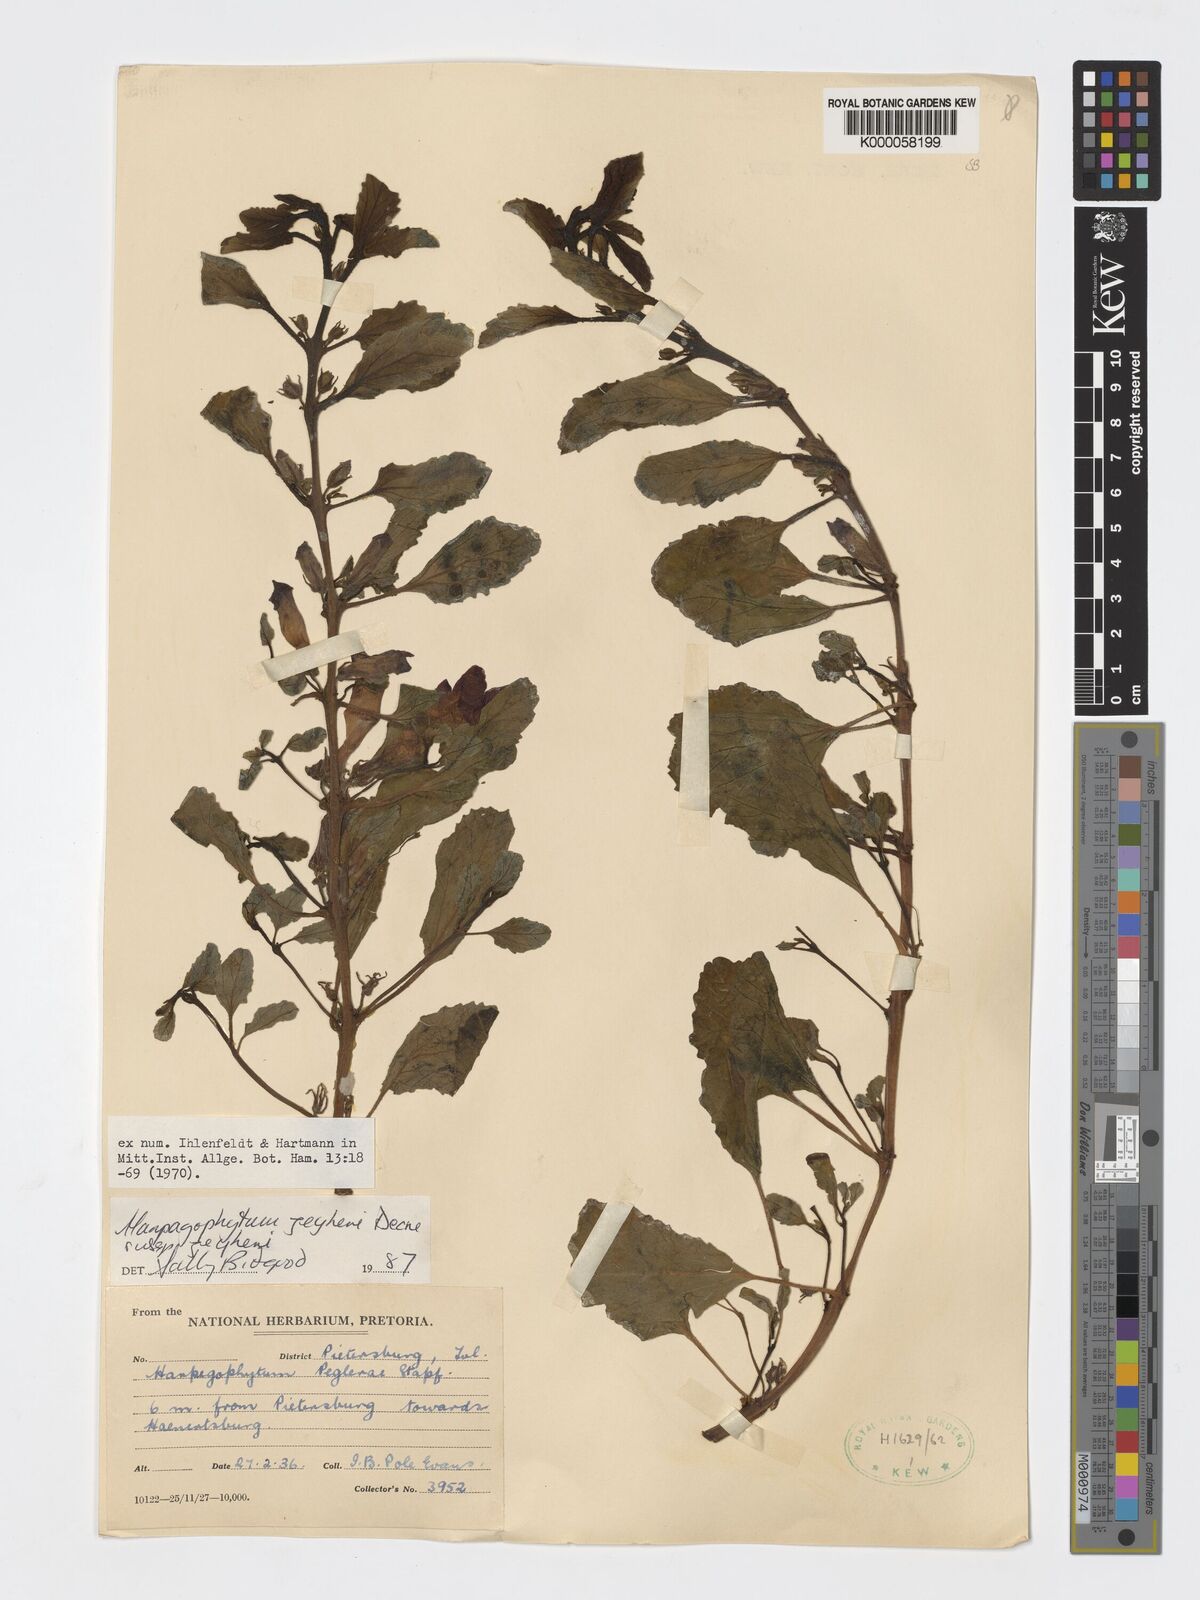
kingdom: Plantae
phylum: Tracheophyta
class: Magnoliopsida
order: Lamiales
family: Pedaliaceae
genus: Harpagophytum
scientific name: Harpagophytum zeyheri
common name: Grappleplant
